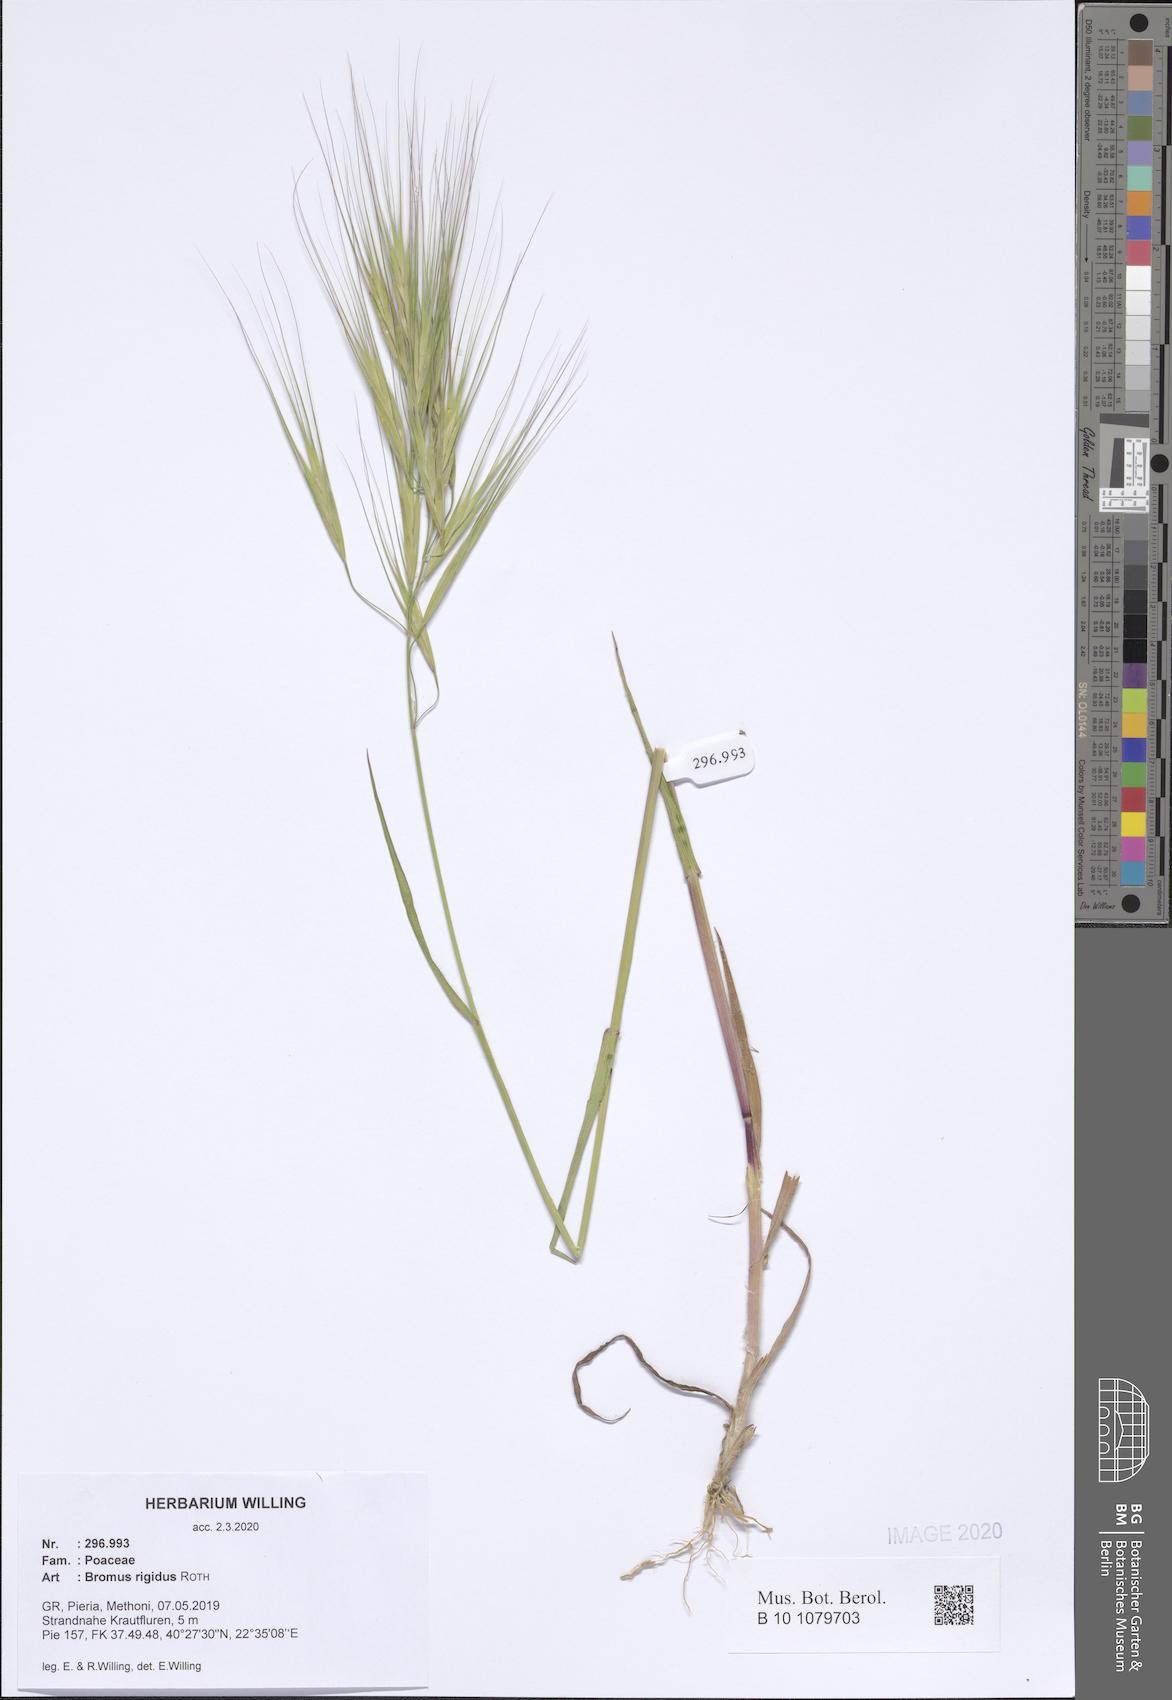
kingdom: Plantae
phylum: Tracheophyta
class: Liliopsida
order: Poales
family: Poaceae
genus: Bromus
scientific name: Bromus rigidus
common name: Ripgut brome
